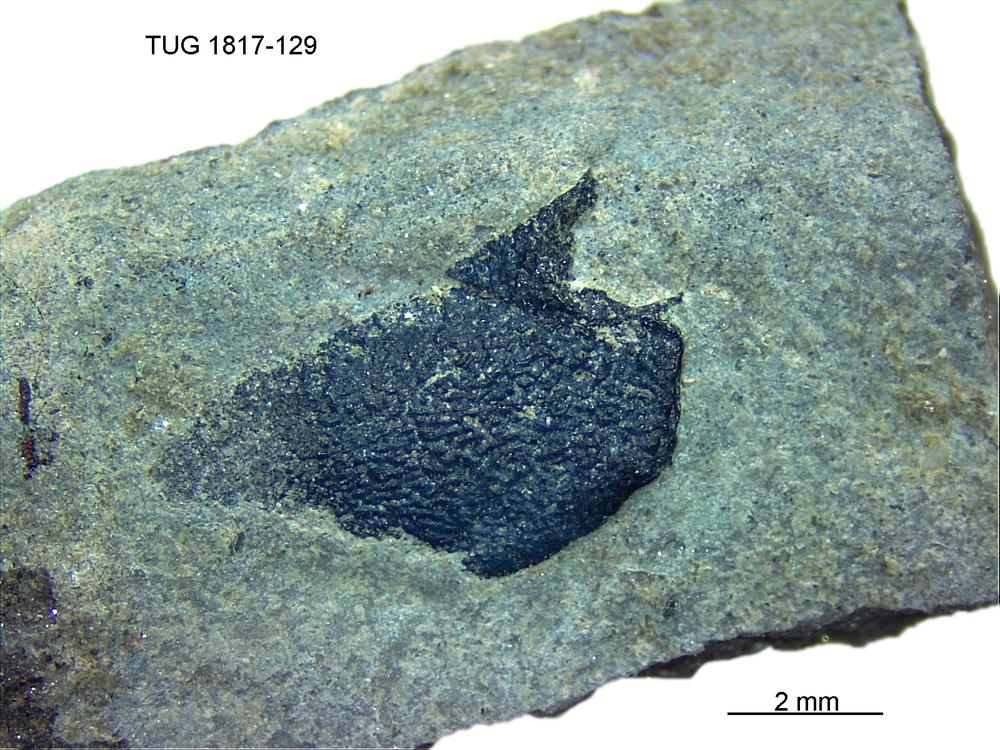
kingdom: Animalia
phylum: Chordata
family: Coccosteidae
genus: Millerosteus
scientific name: Millerosteus minor
